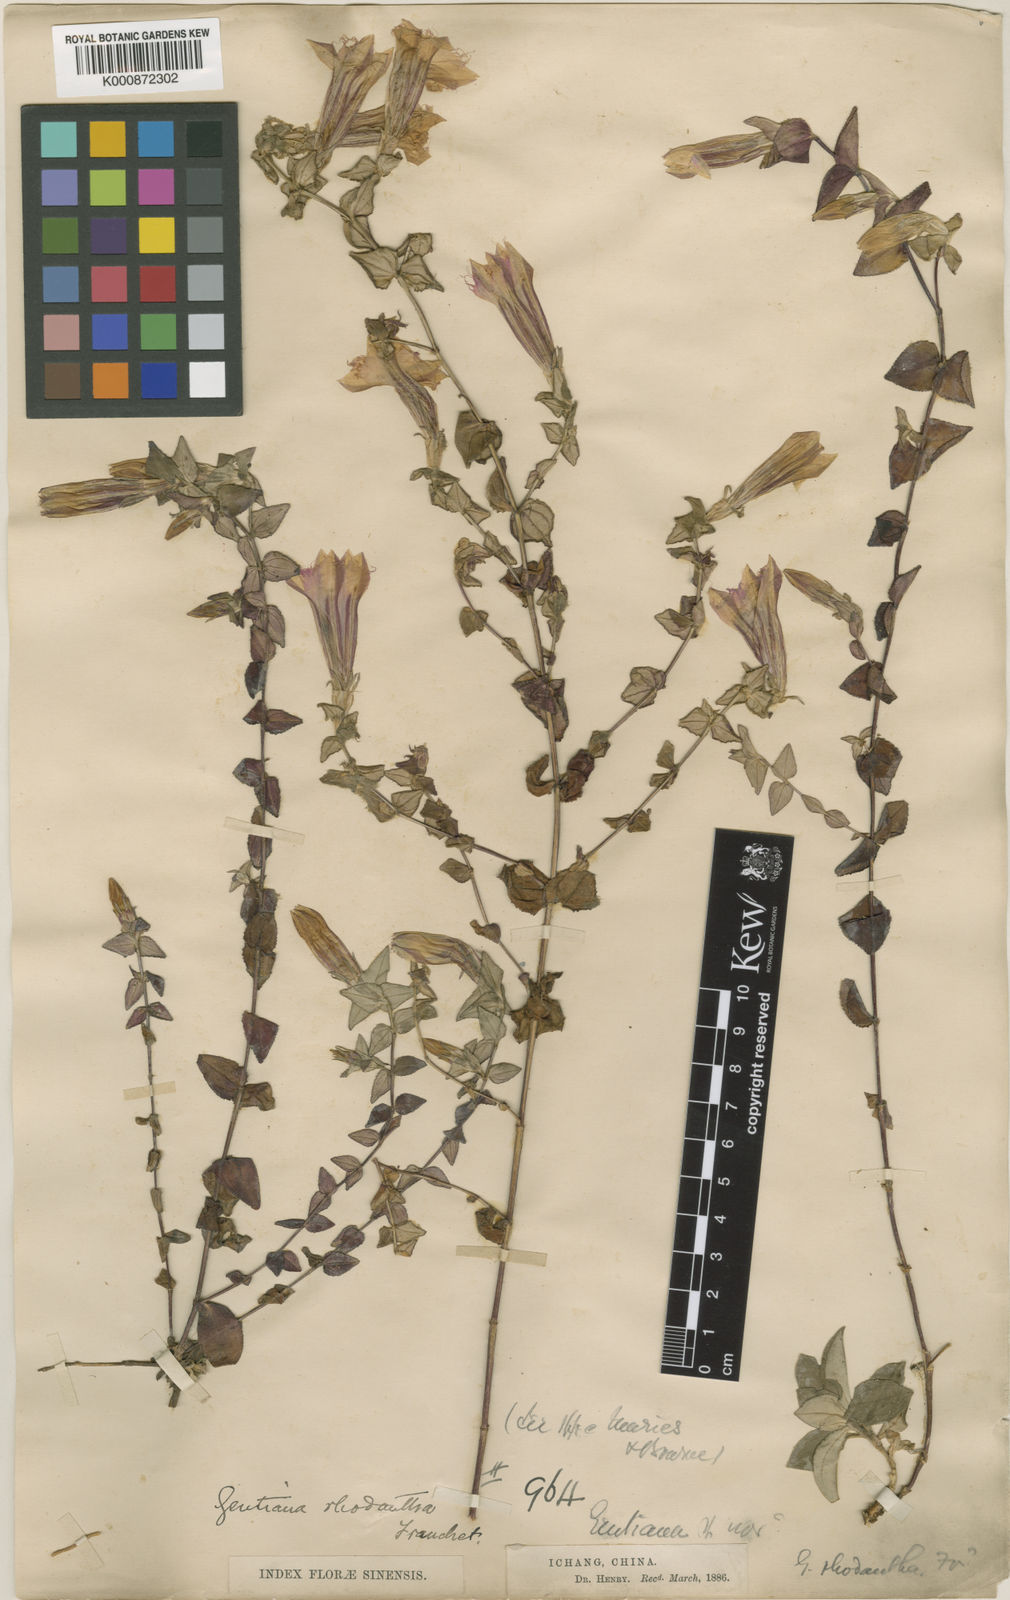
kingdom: Plantae
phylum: Tracheophyta
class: Magnoliopsida
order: Gentianales
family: Gentianaceae
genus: Metagentiana
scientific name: Metagentiana rhodantha
